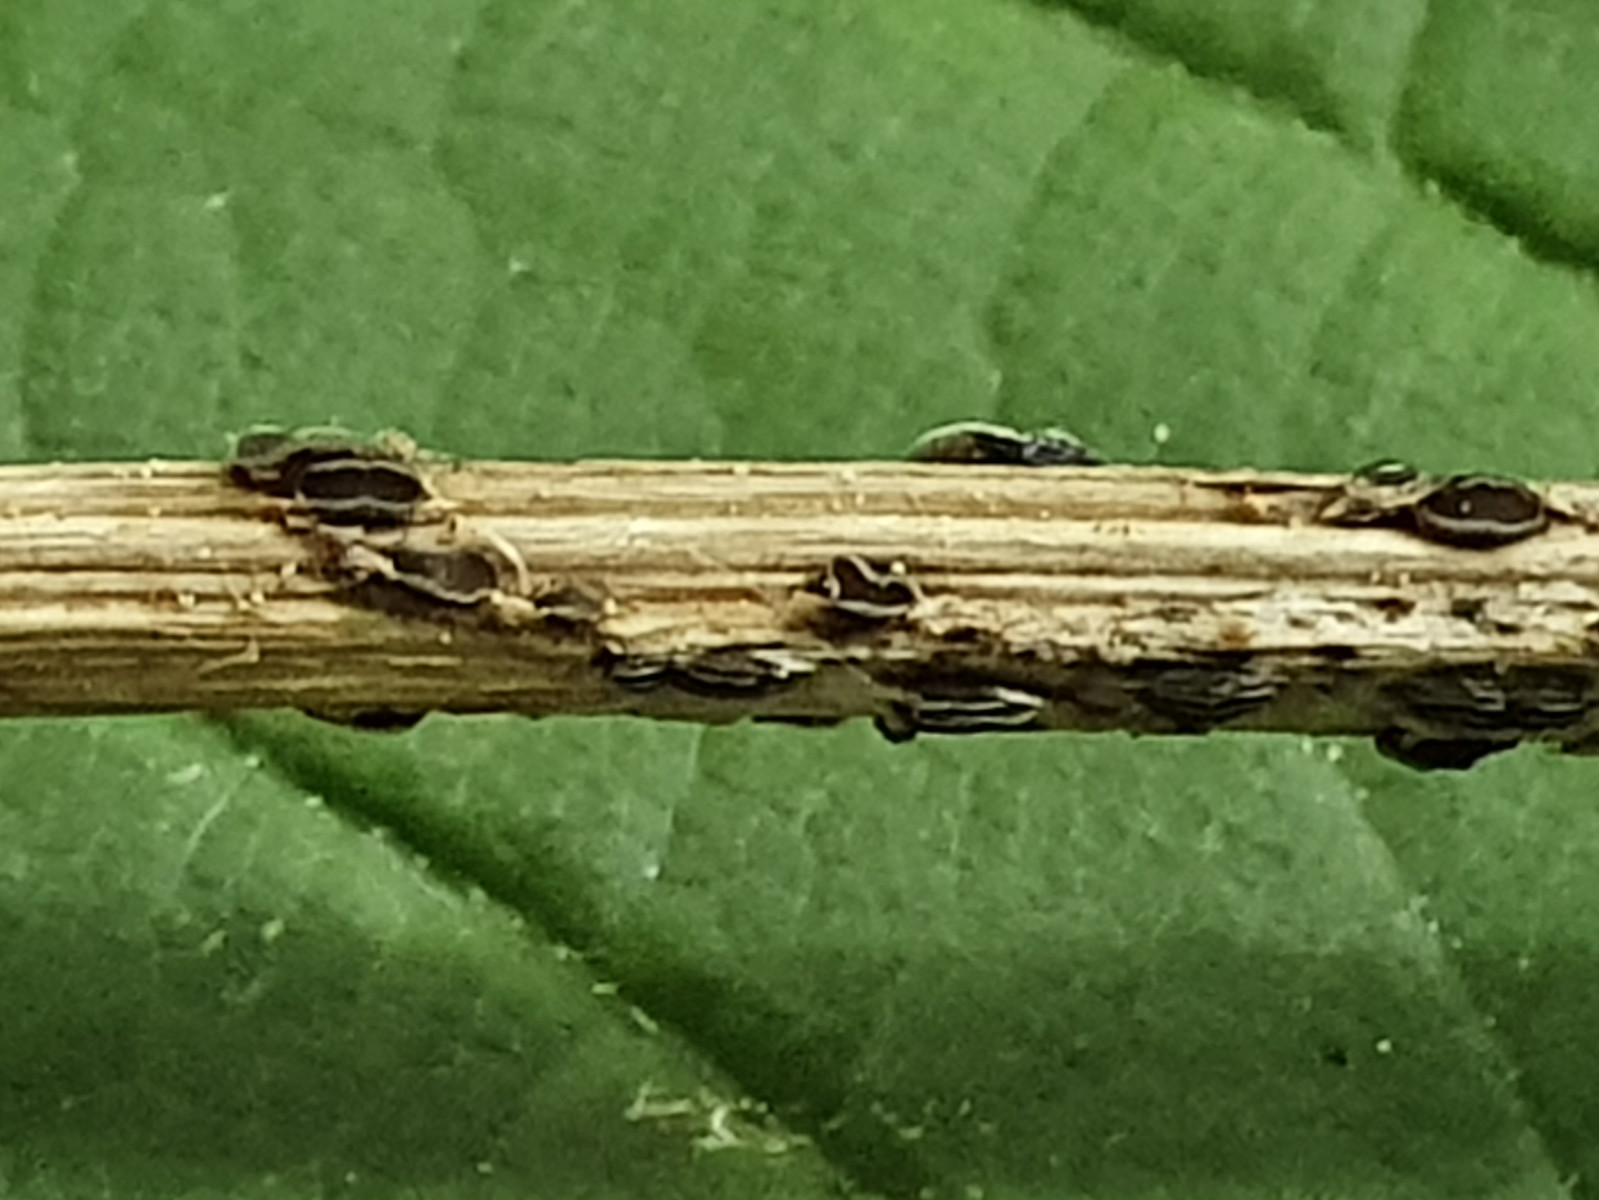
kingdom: Fungi
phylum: Ascomycota
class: Leotiomycetes
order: Helotiales
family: Ploettnerulaceae
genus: Pyrenopeziza
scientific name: Pyrenopeziza petiolaris
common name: ahorn-kerneskive
